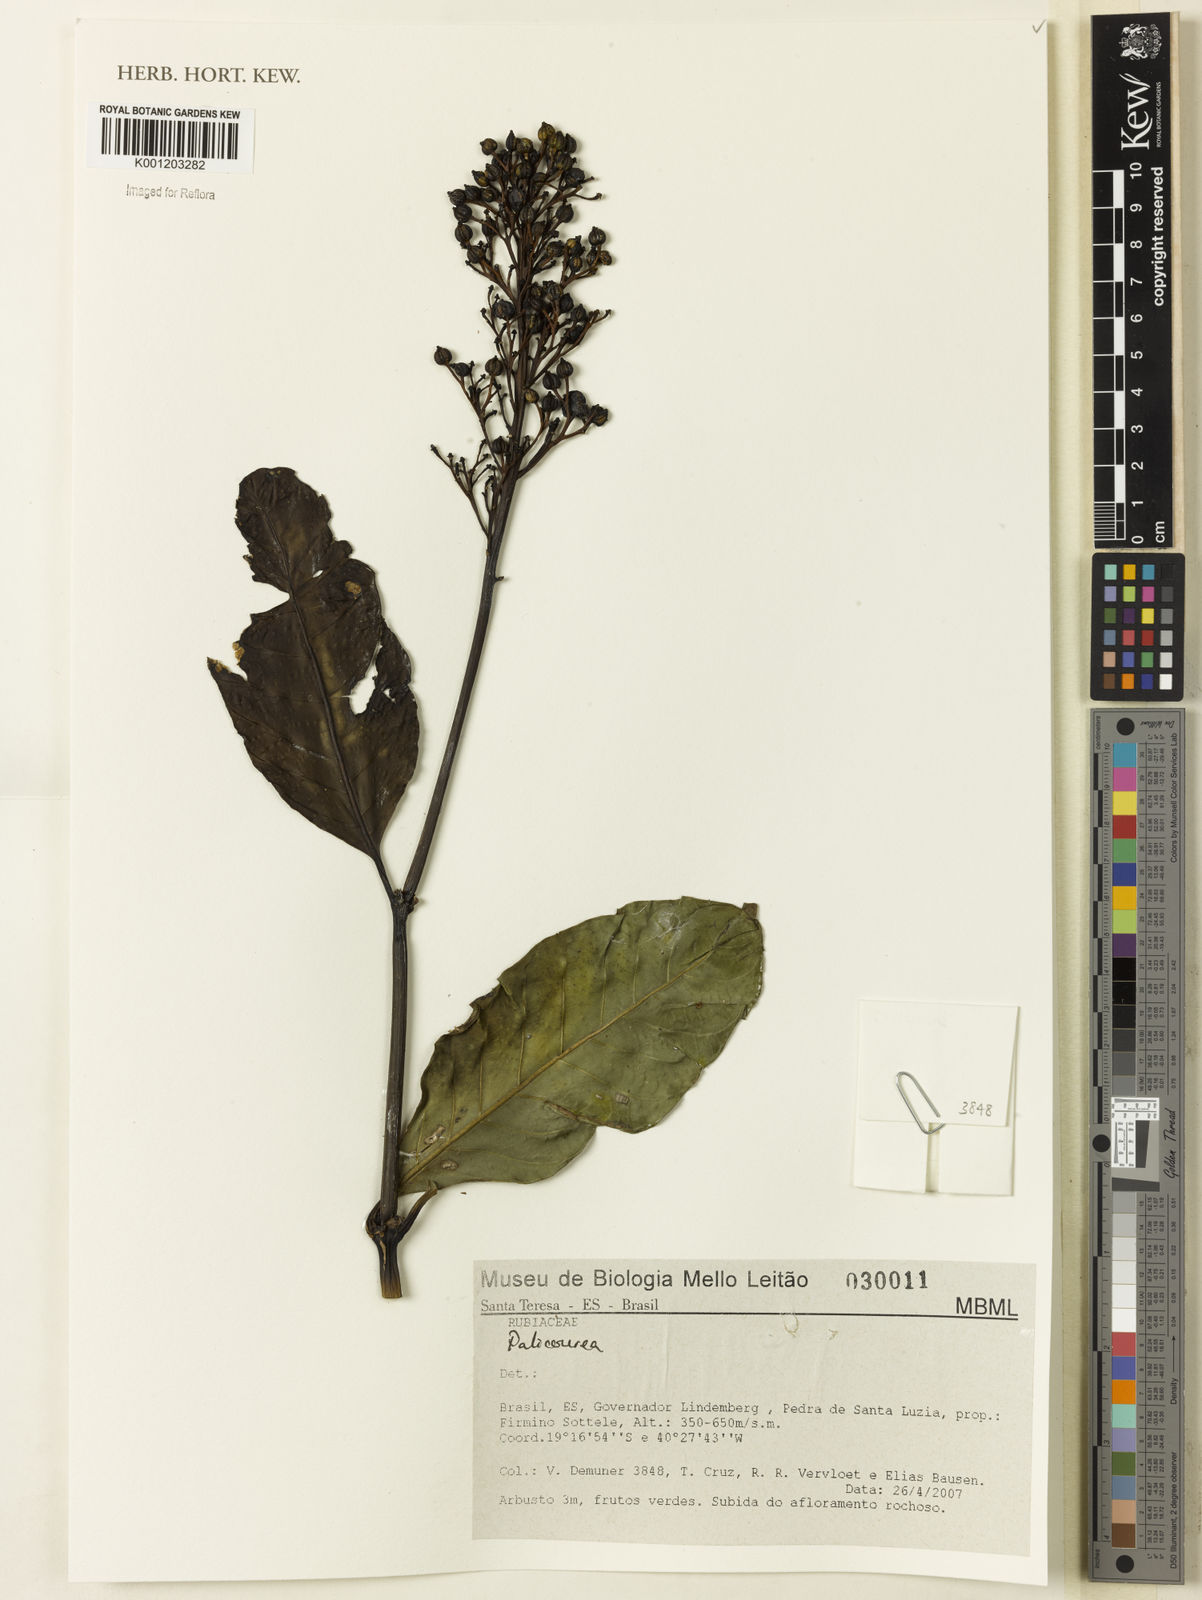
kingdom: Plantae
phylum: Tracheophyta
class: Magnoliopsida
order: Gentianales
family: Rubiaceae
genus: Palicourea
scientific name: Palicourea
